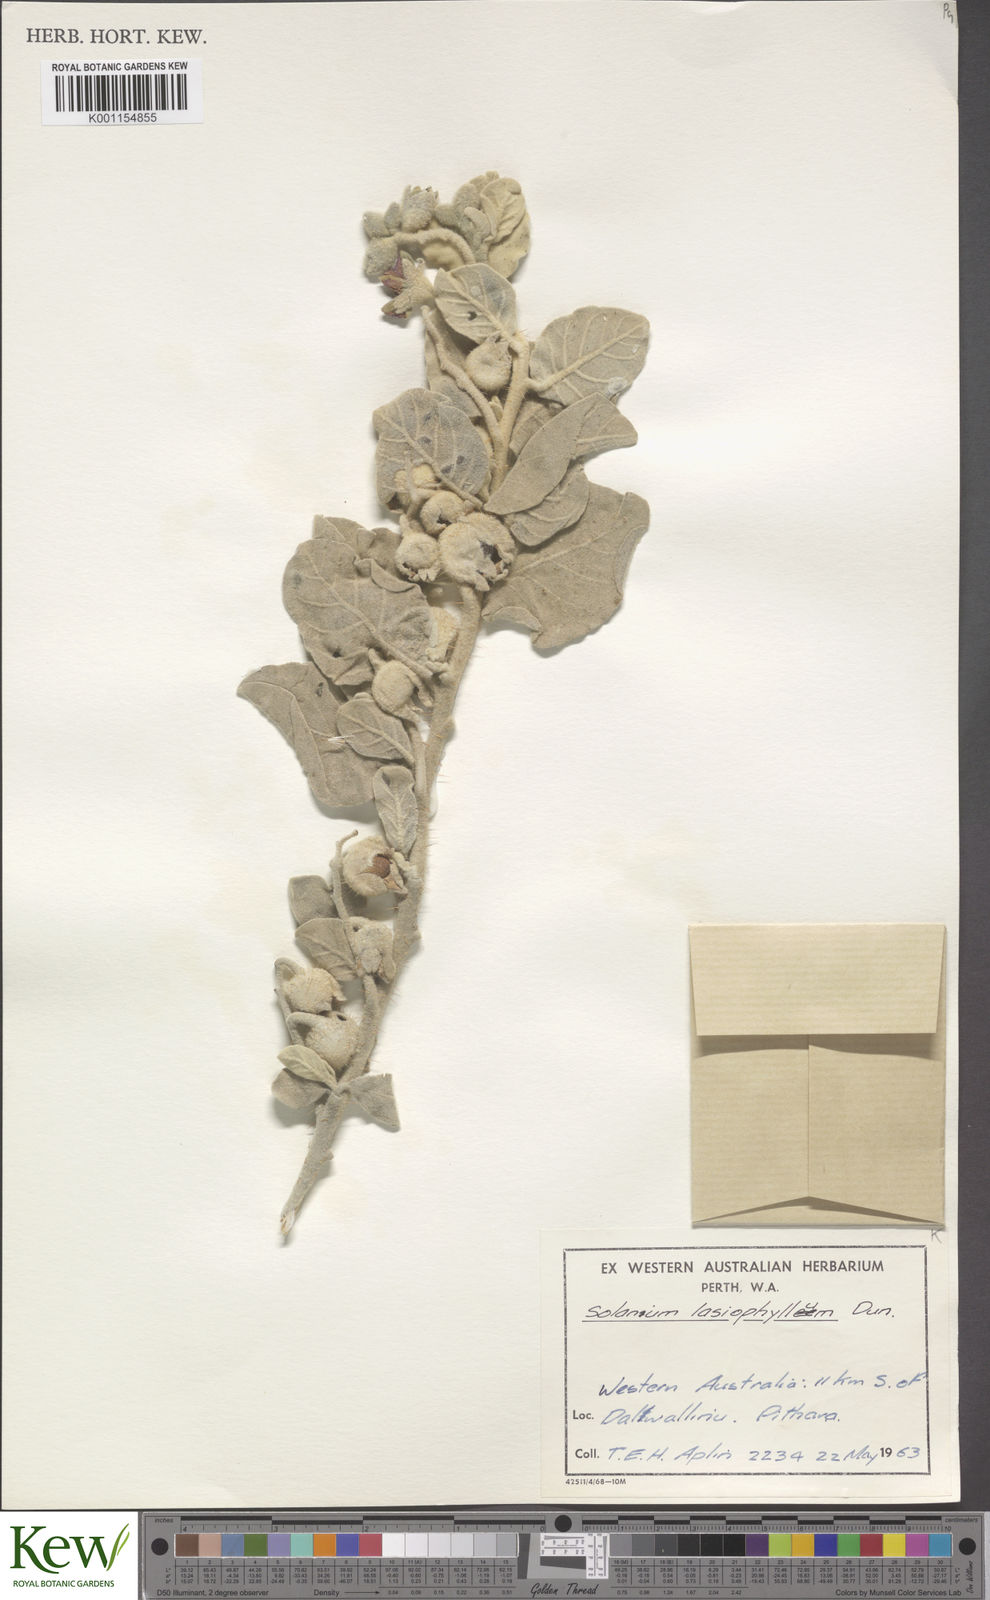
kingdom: Plantae
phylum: Tracheophyta
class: Magnoliopsida
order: Solanales
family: Solanaceae
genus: Solanum
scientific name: Solanum lasiophyllum
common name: Flannelbush
